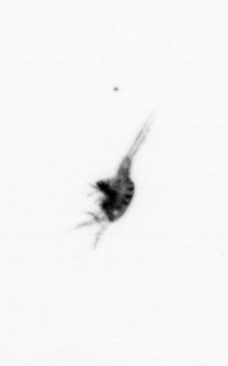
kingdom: Animalia
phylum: Arthropoda
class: Copepoda
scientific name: Copepoda
